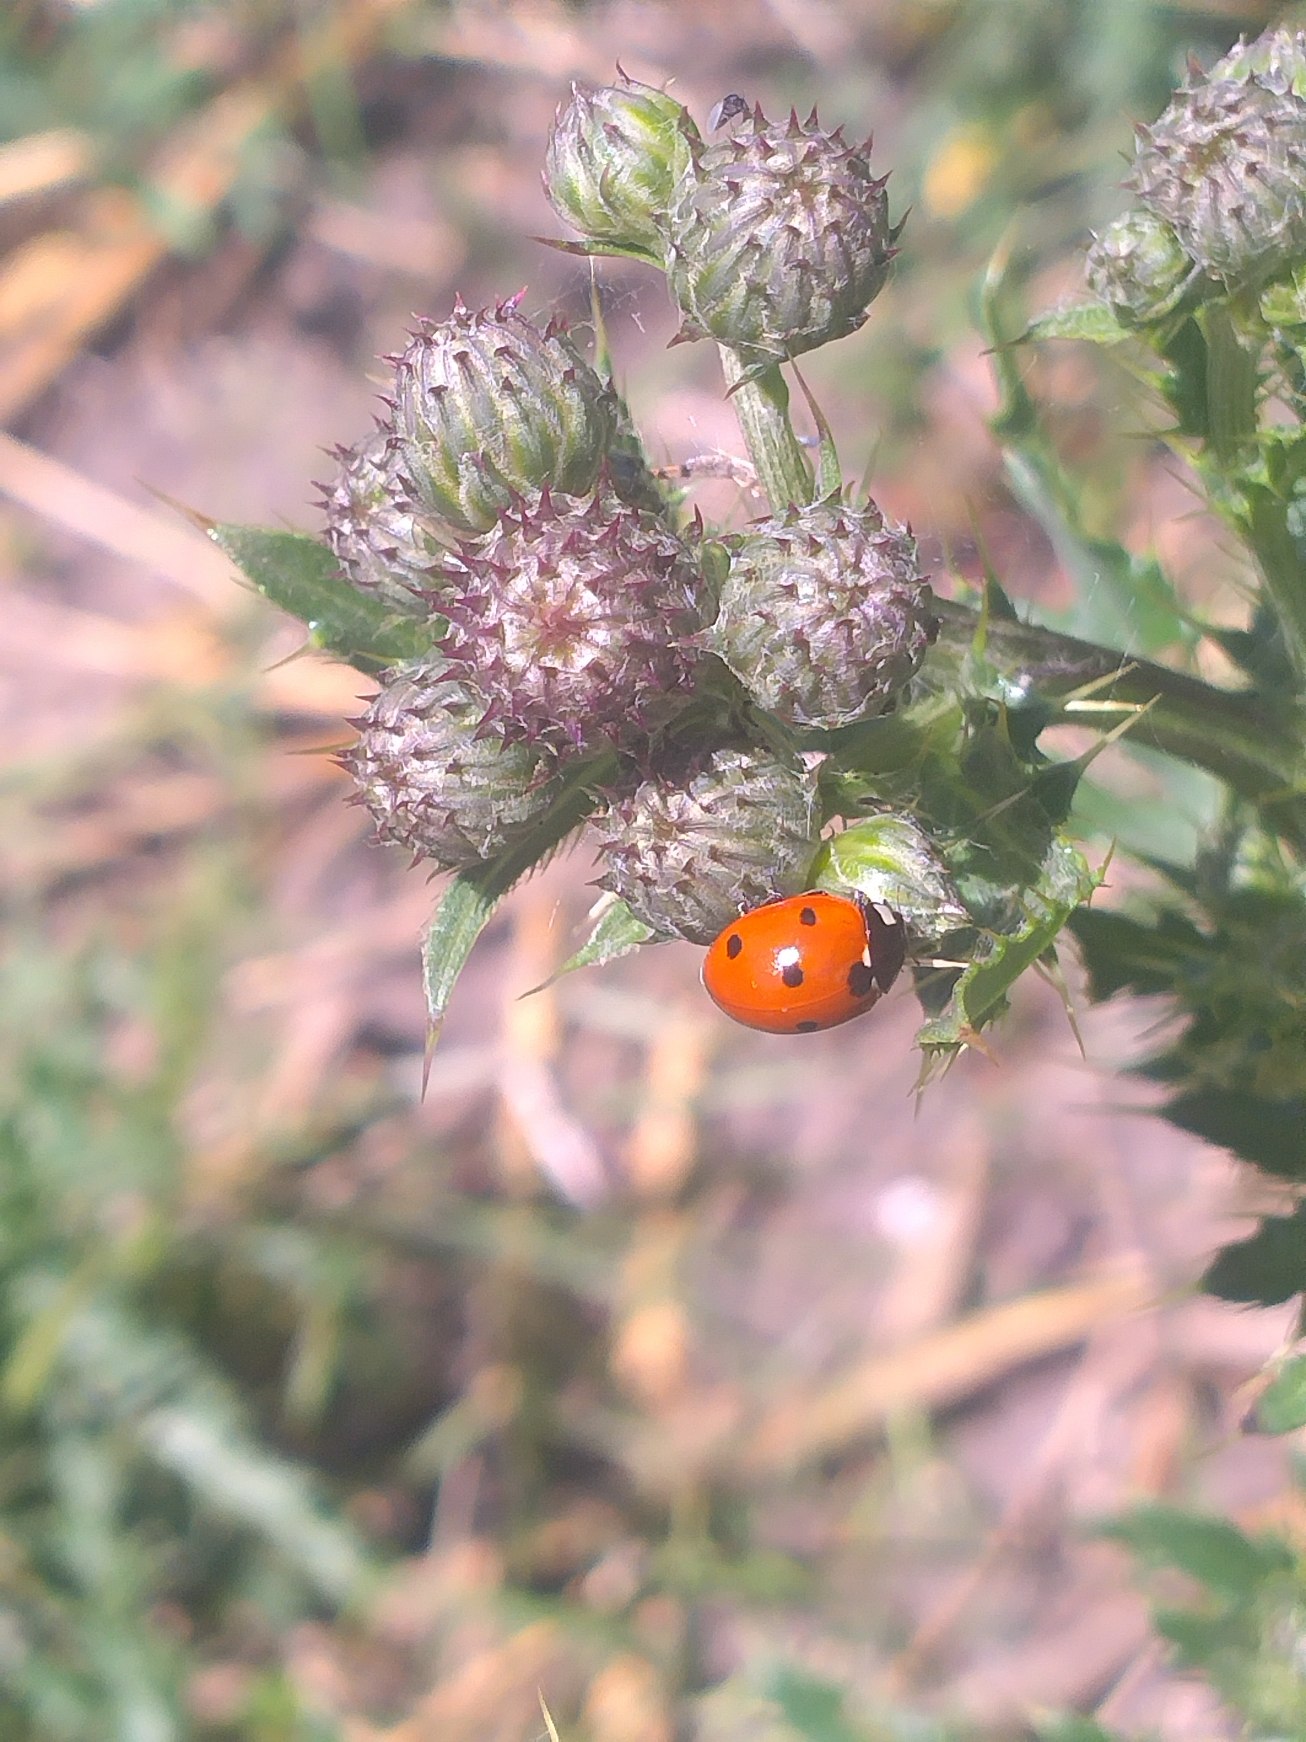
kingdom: Animalia
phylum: Arthropoda
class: Insecta
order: Coleoptera
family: Coccinellidae
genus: Coccinella
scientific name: Coccinella septempunctata
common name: Syvplettet mariehøne
